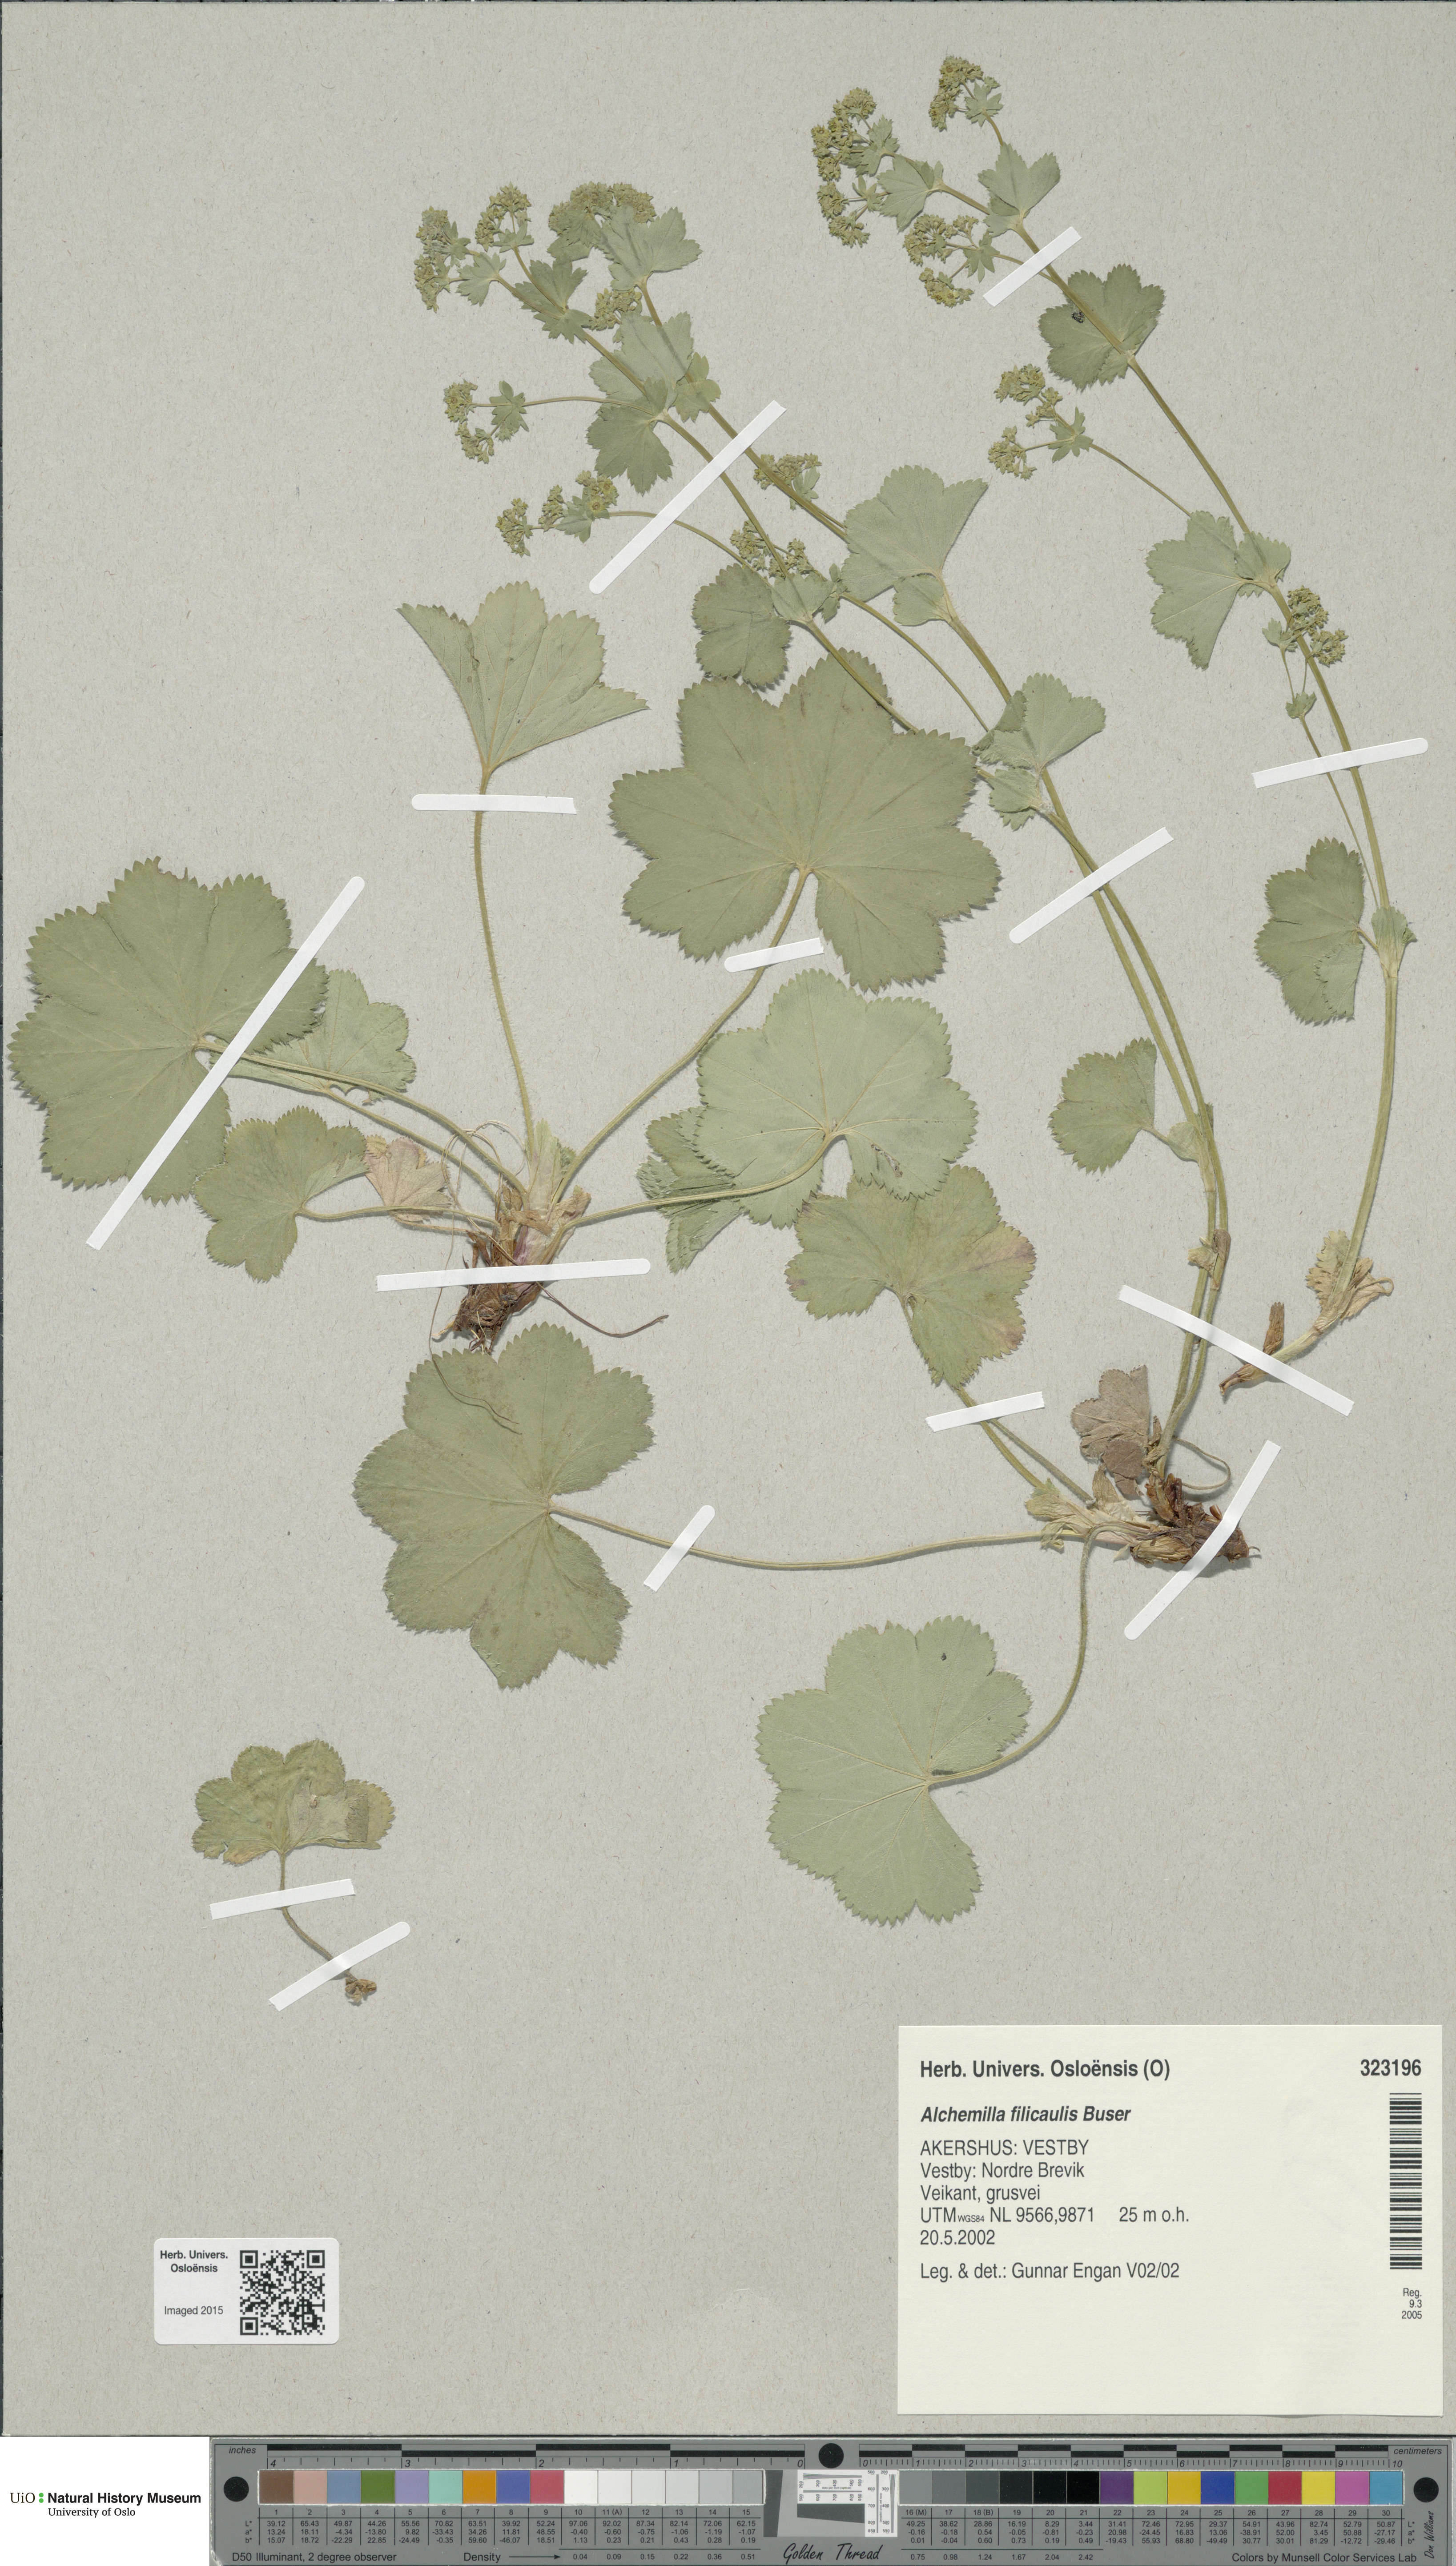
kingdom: Plantae
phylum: Tracheophyta
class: Magnoliopsida
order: Rosales
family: Rosaceae
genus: Alchemilla
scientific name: Alchemilla filicaulis
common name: Hairy lady's-mantle
